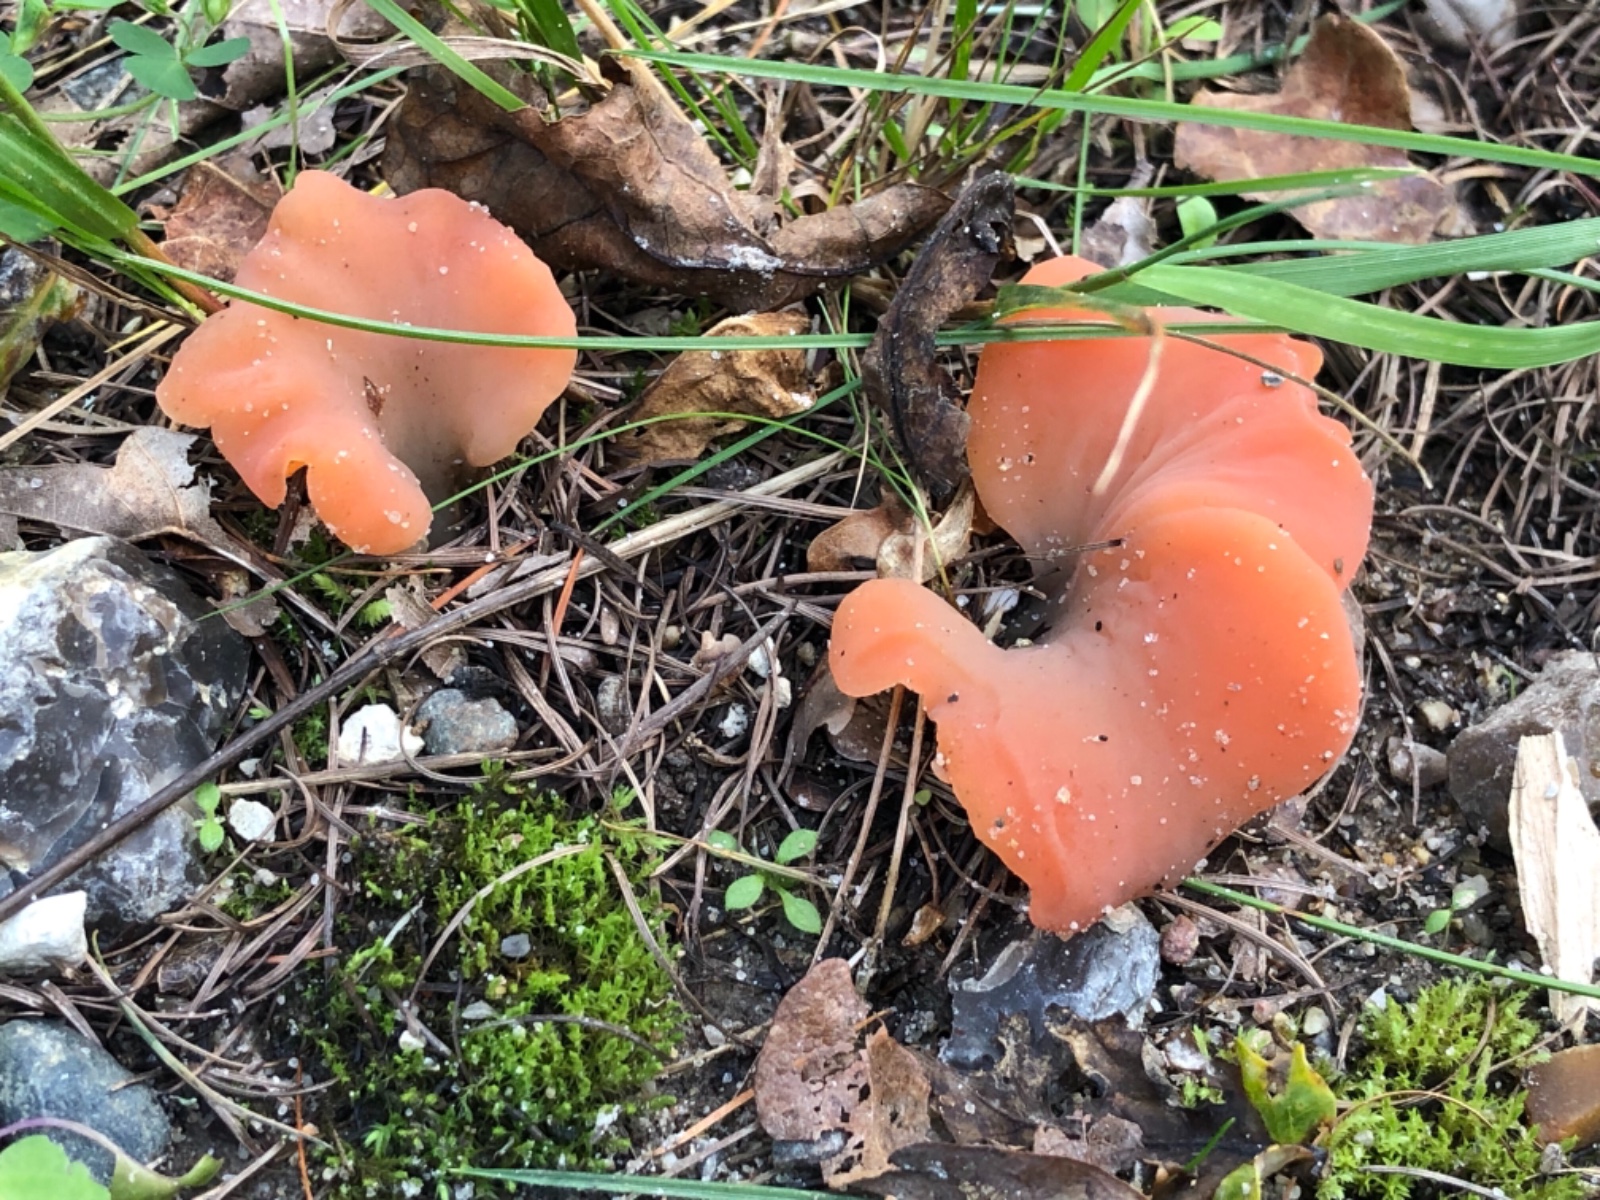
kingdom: Fungi
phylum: Basidiomycota
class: Agaricomycetes
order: Auriculariales
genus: Guepinia
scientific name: Guepinia helvelloides
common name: bævretunge
